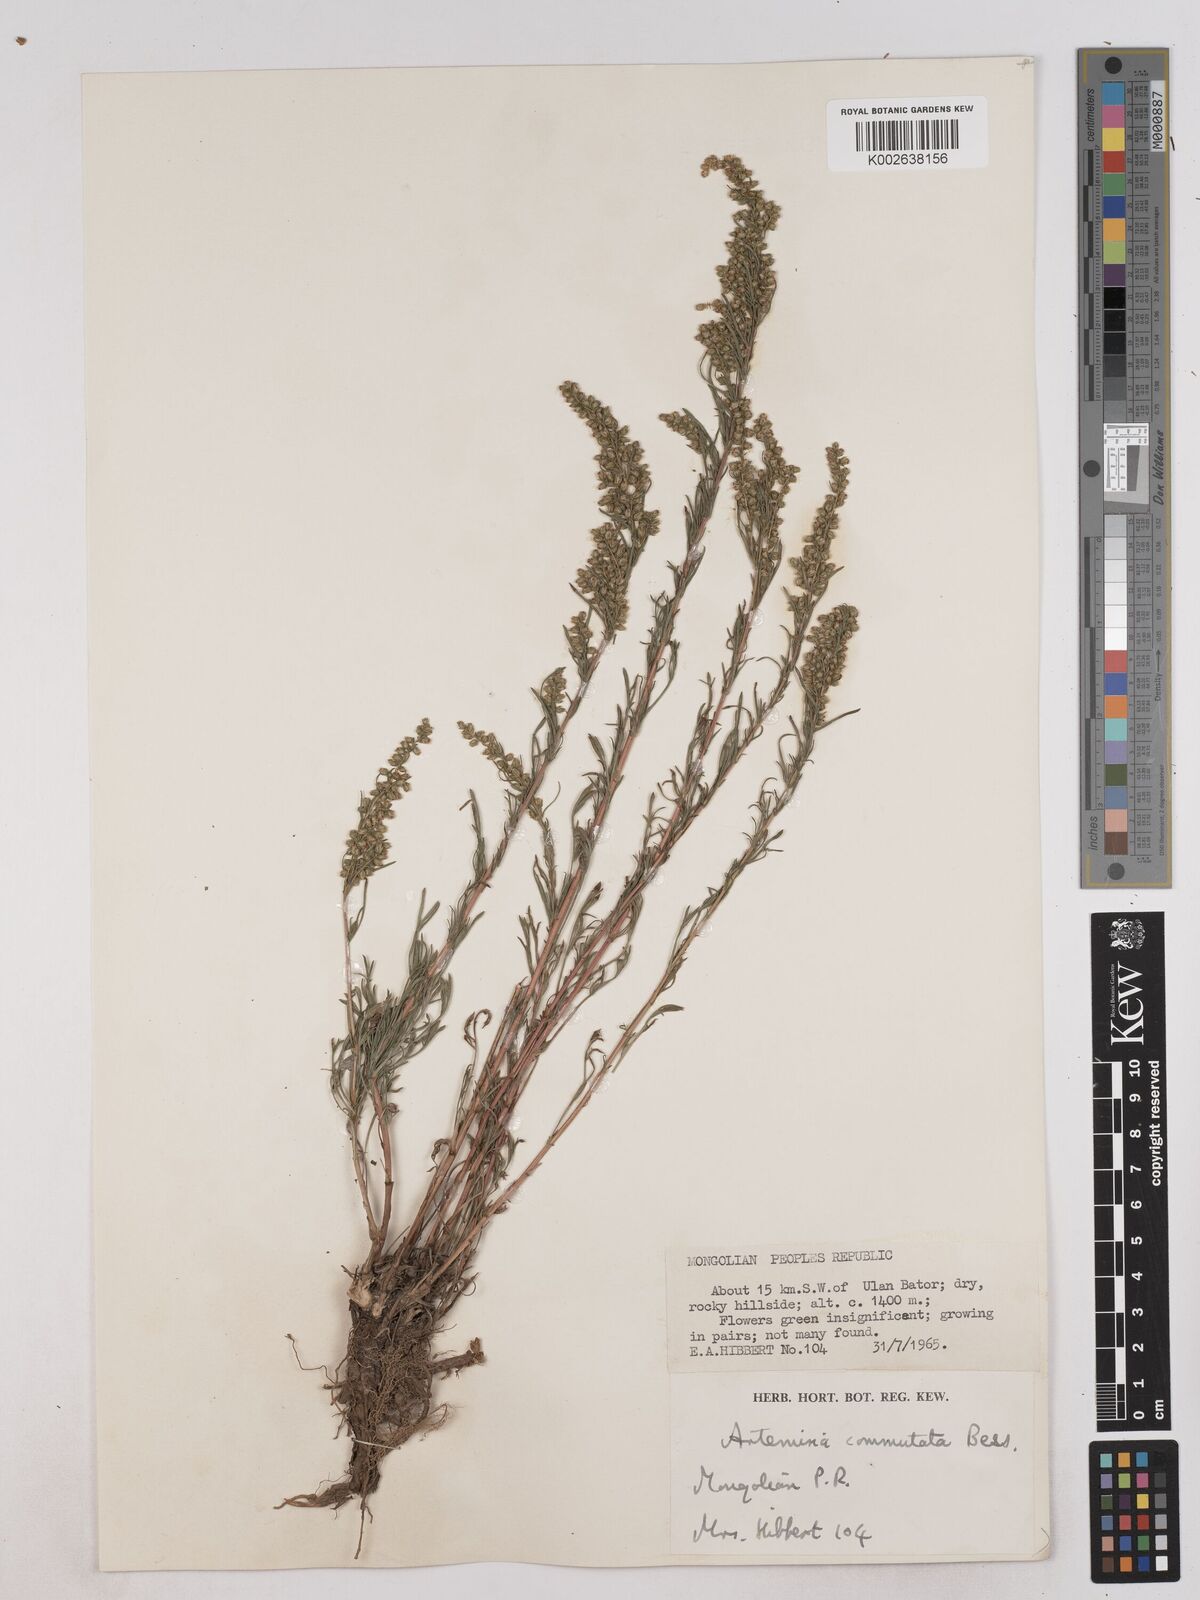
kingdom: Plantae
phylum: Tracheophyta
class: Magnoliopsida
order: Asterales
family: Asteraceae
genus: Artemisia
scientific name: Artemisia pubescens
